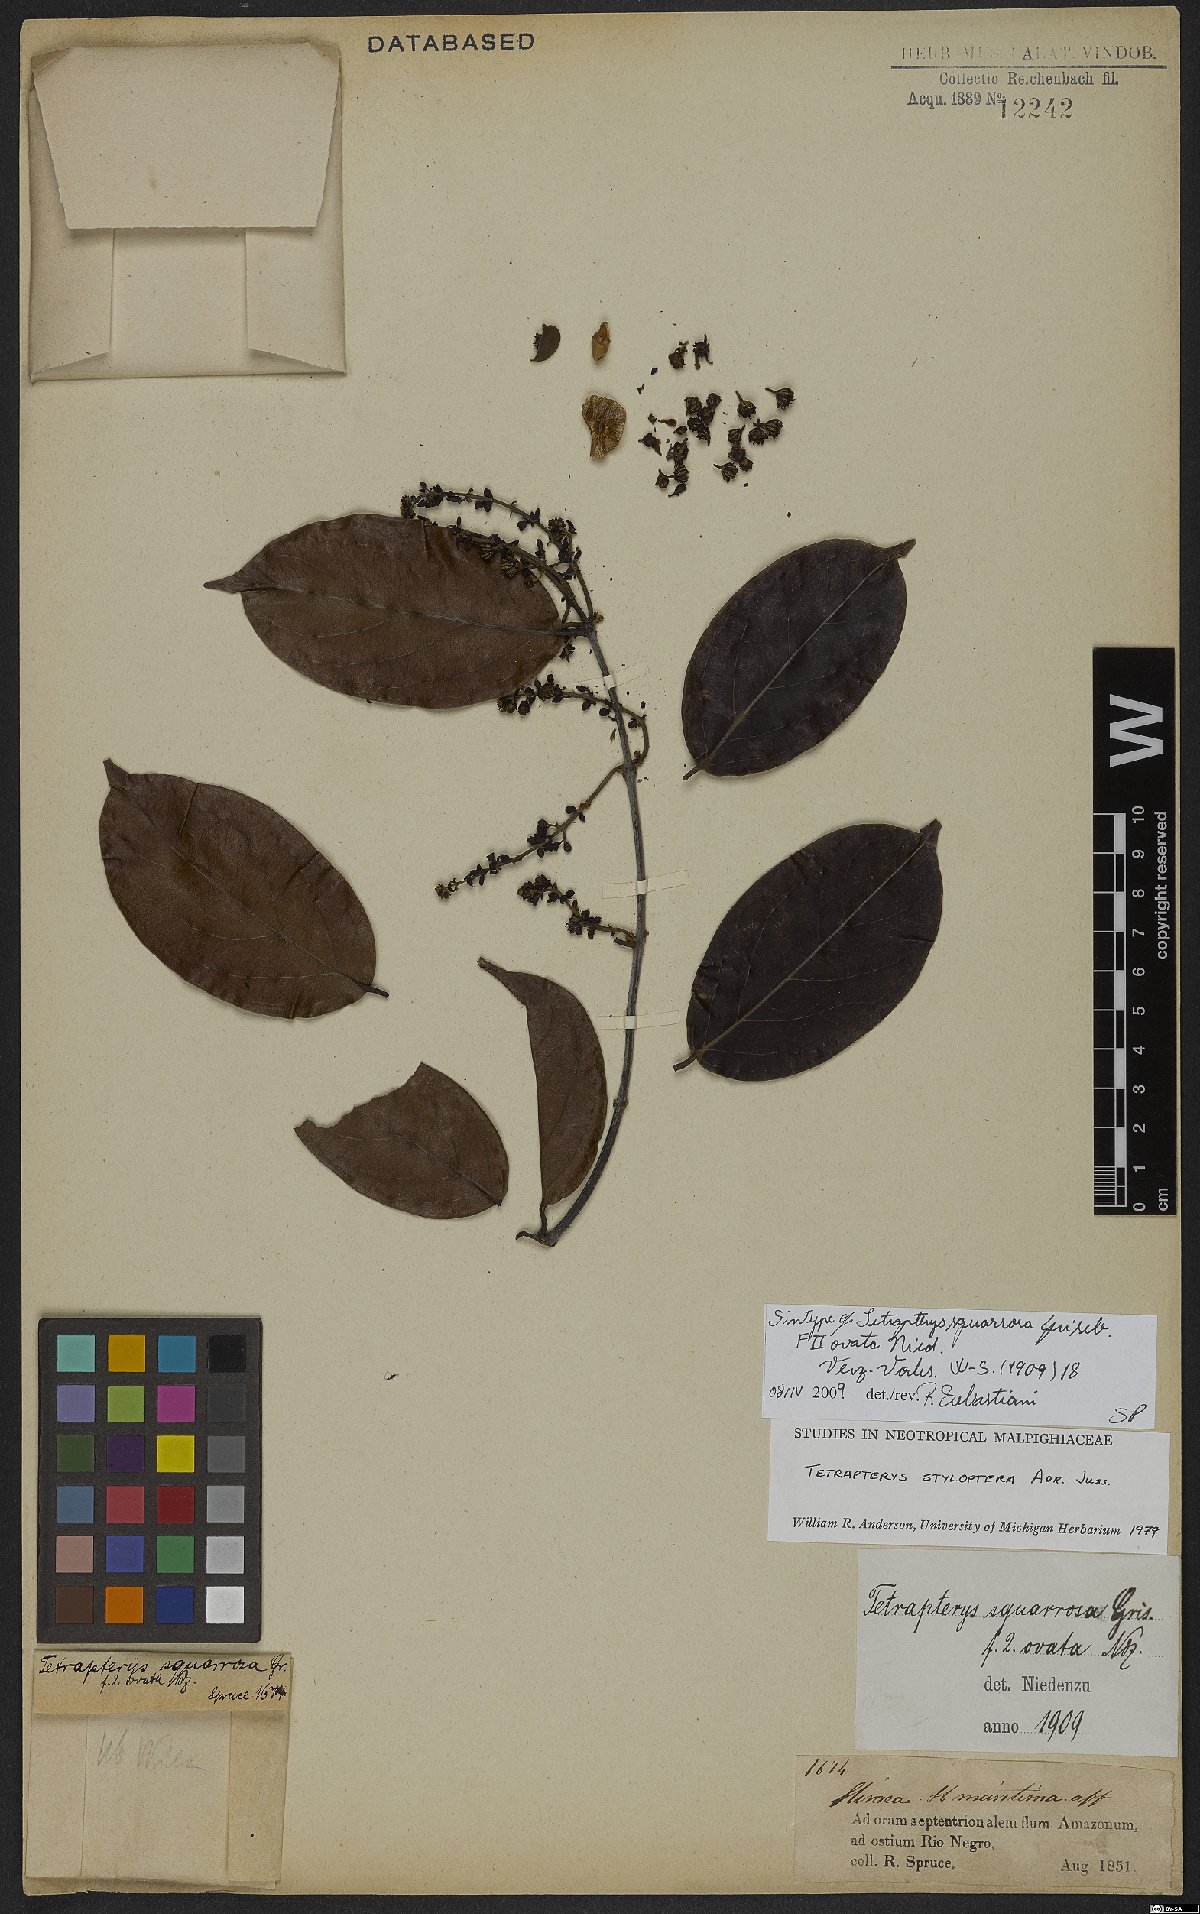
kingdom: Plantae
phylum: Tracheophyta
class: Magnoliopsida
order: Malpighiales
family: Malpighiaceae
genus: Glicophyllum
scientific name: Glicophyllum stylopterum
